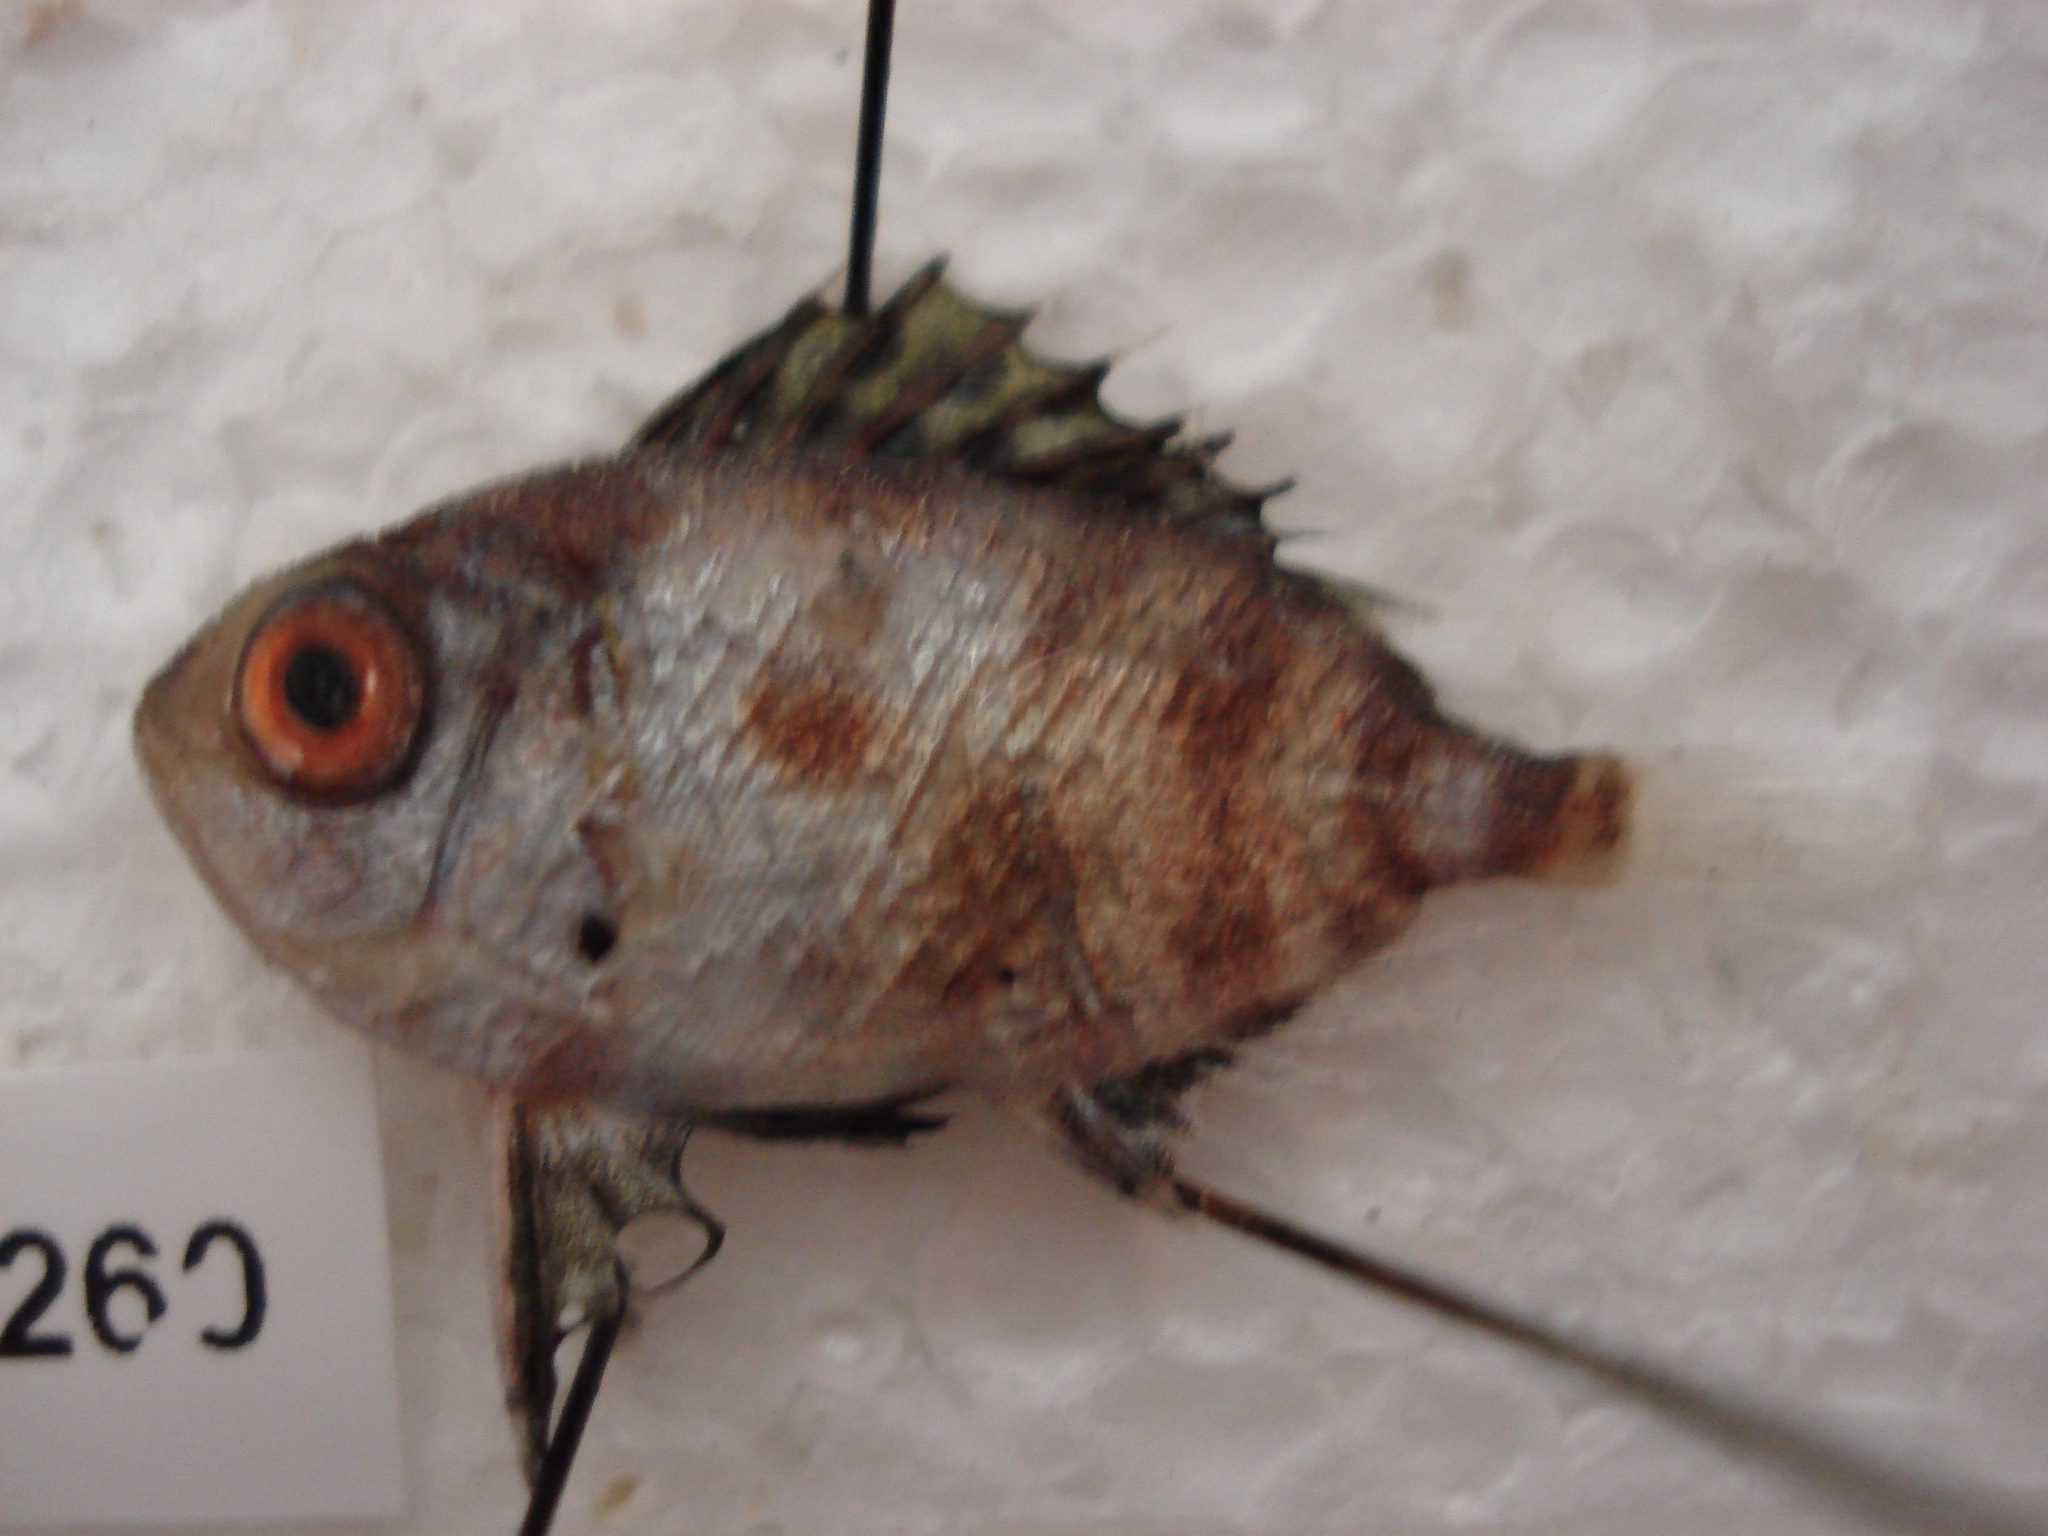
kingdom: Animalia
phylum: Chordata
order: Perciformes
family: Priacanthidae
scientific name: Priacanthidae
